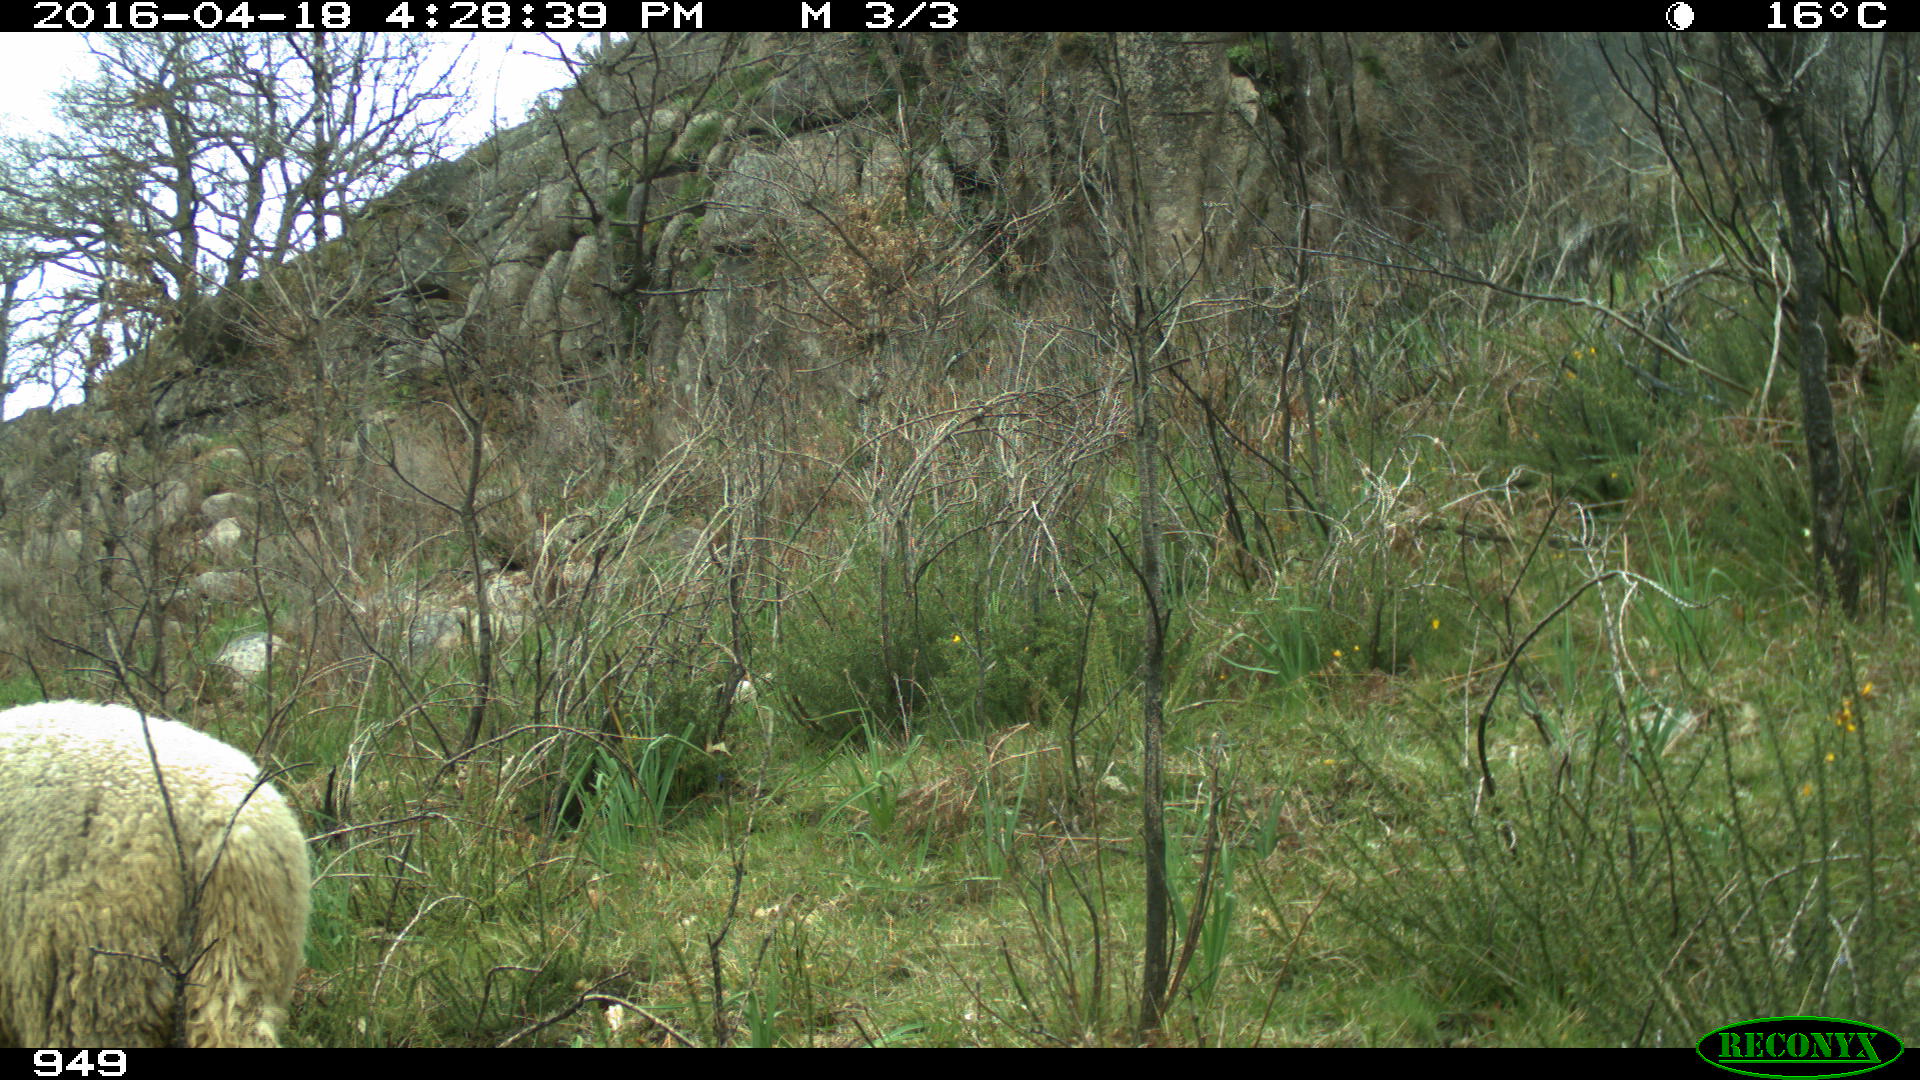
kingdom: Animalia
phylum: Chordata
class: Mammalia
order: Artiodactyla
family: Bovidae
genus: Ovis
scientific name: Ovis aries
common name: Domestic sheep
